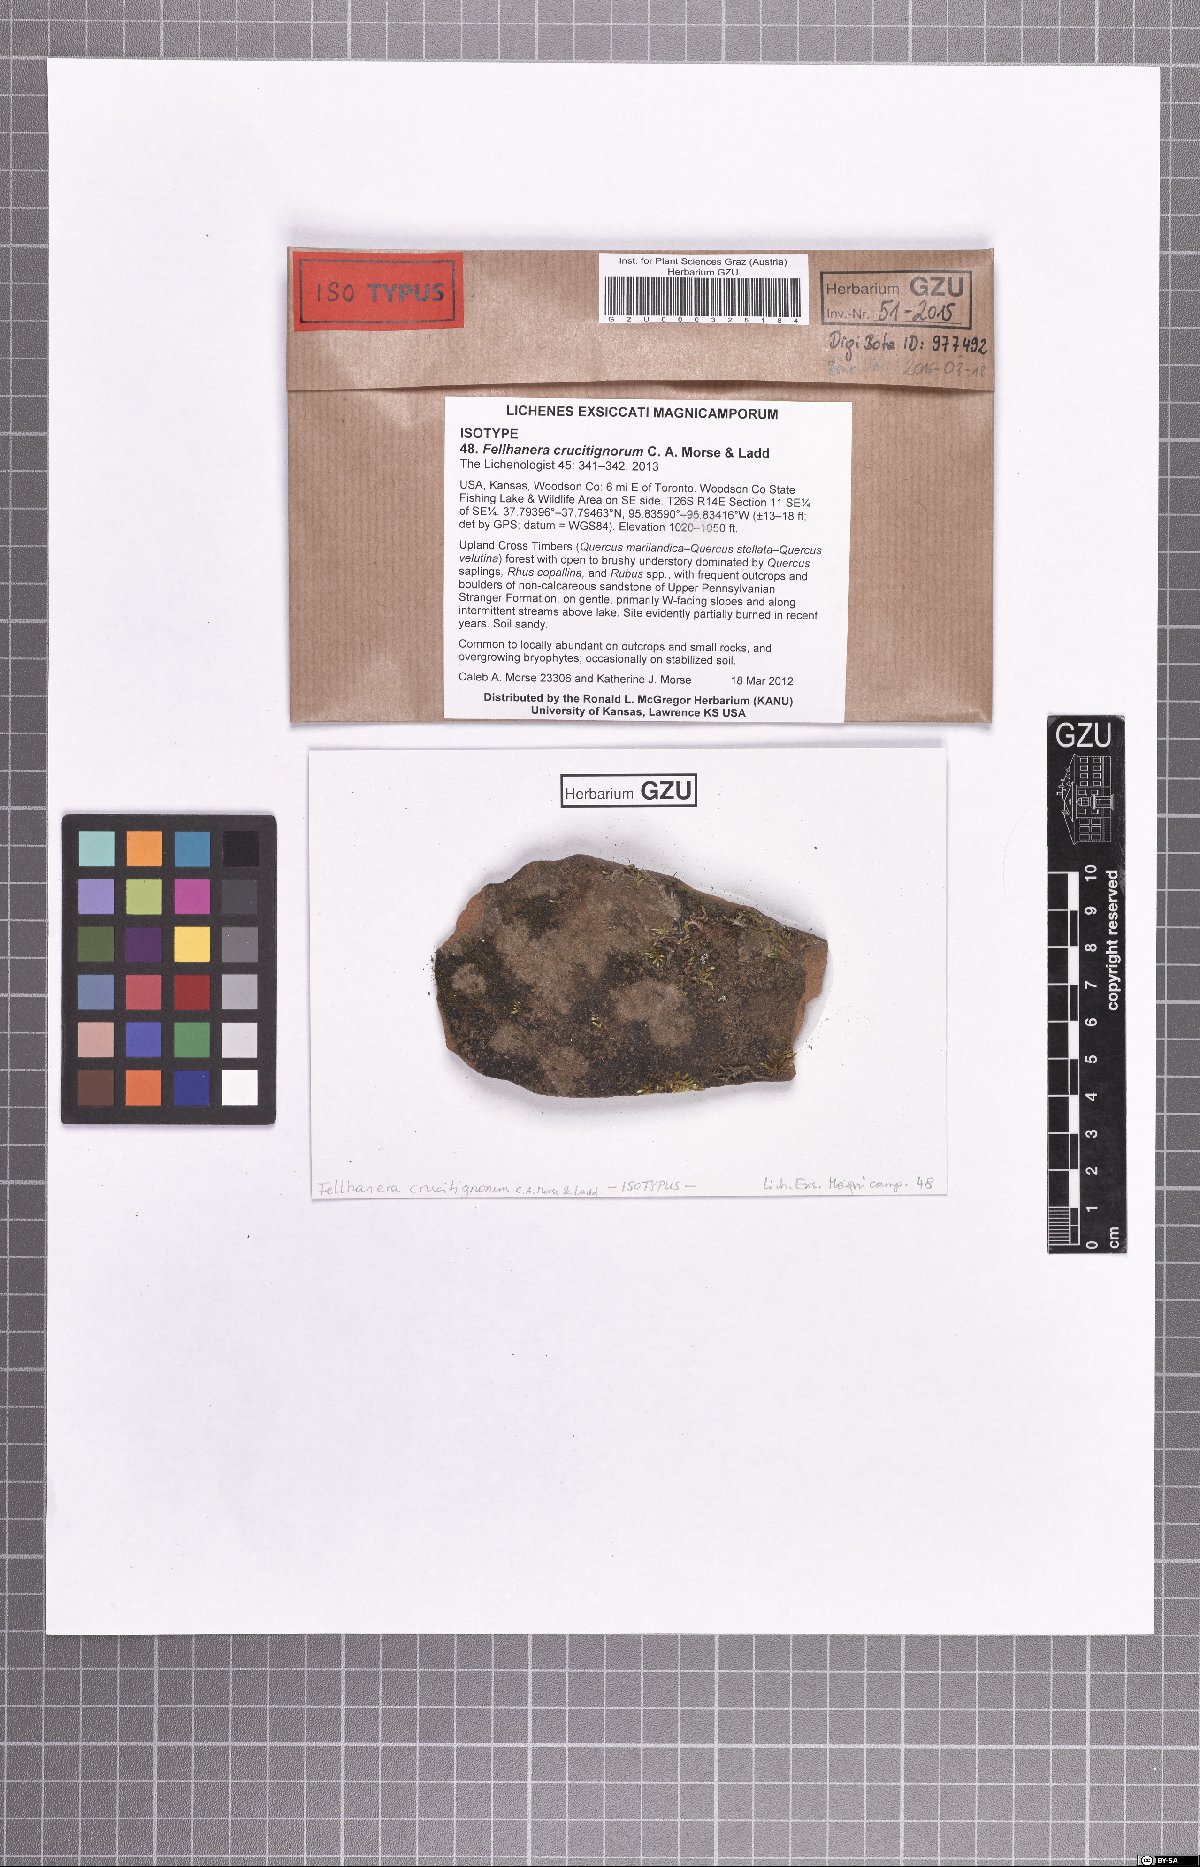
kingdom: Fungi
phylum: Ascomycota
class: Lecanoromycetes
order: Lecanorales
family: Byssolomataceae
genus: Fellhanera
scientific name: Fellhanera crucitignorum
